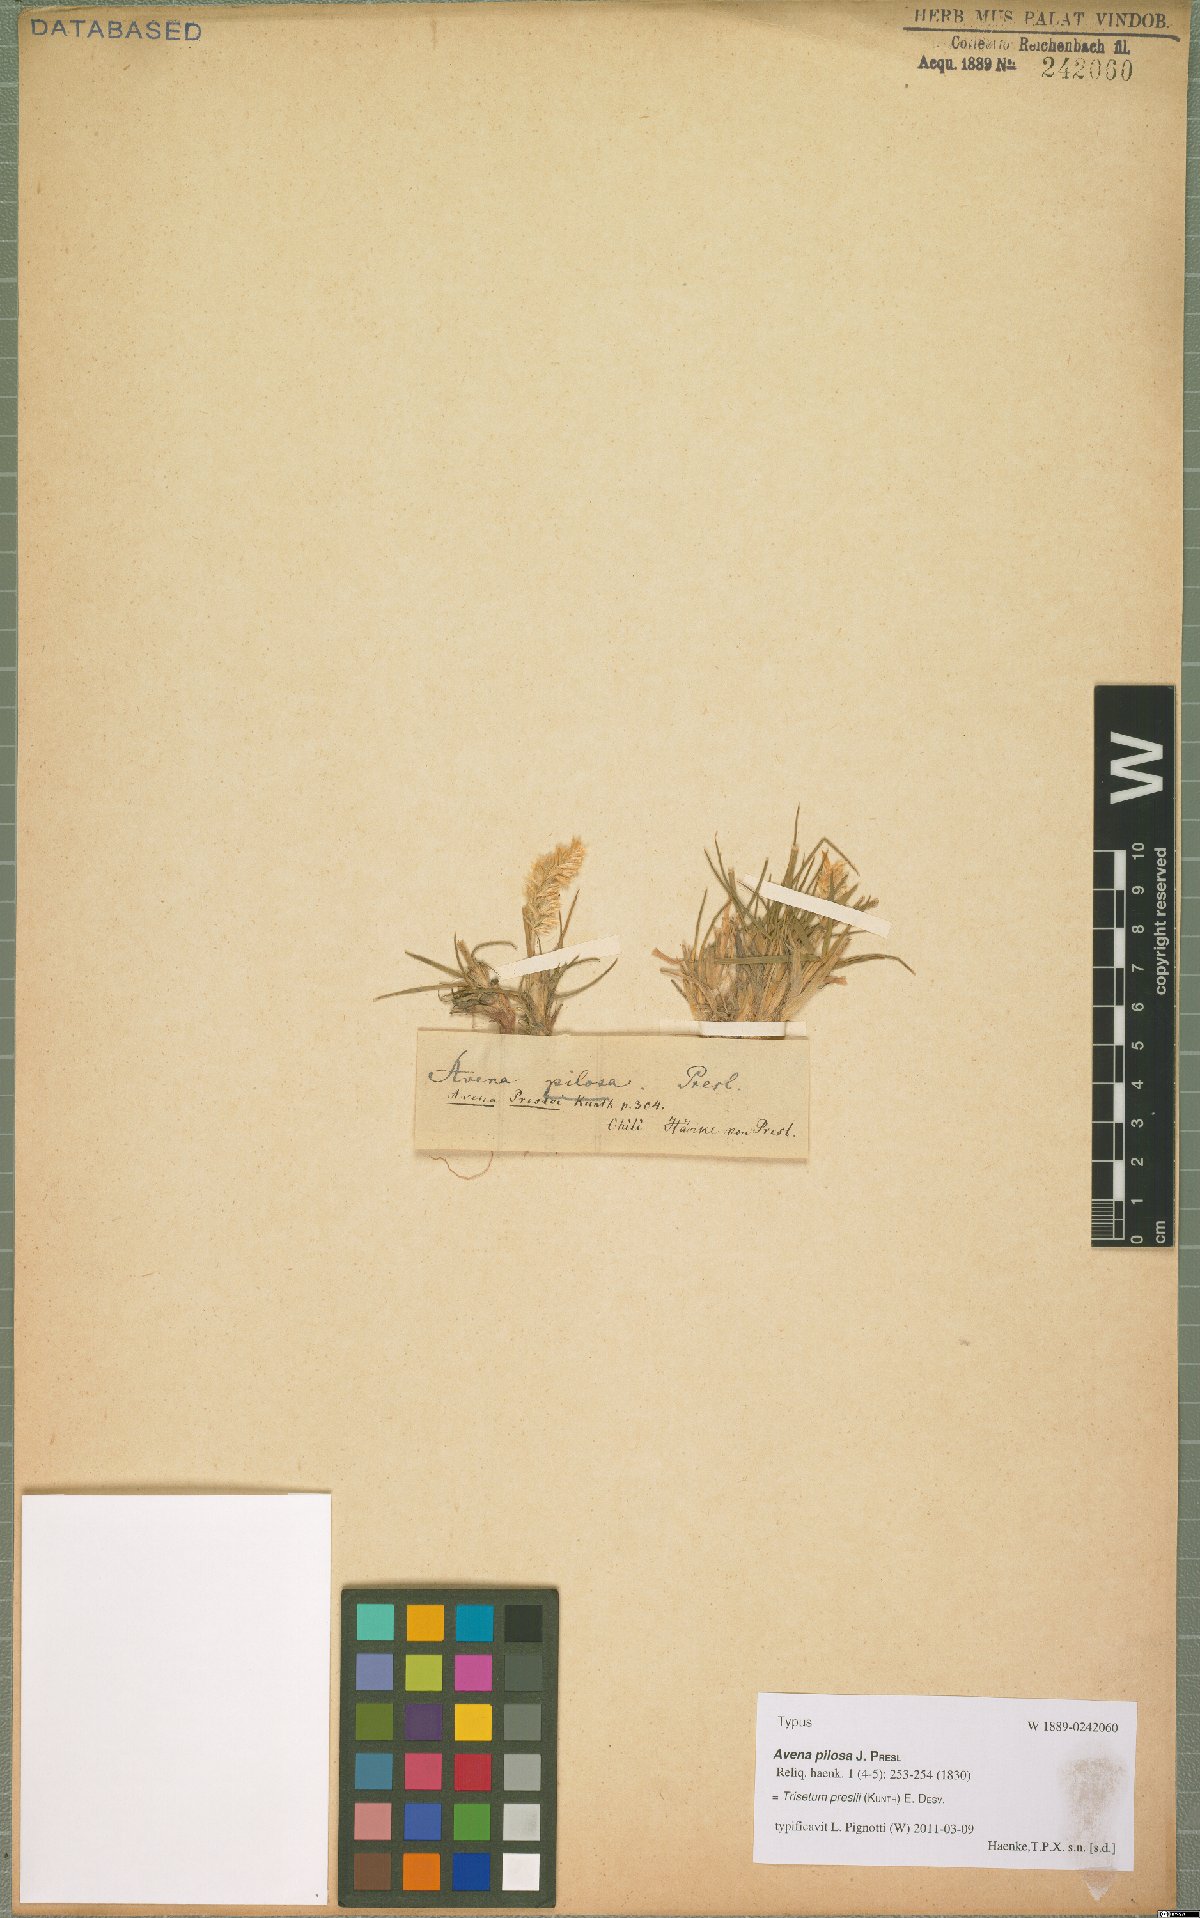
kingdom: Plantae
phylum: Tracheophyta
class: Liliopsida
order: Poales
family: Poaceae
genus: Koeleria
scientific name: Koeleria preslii
